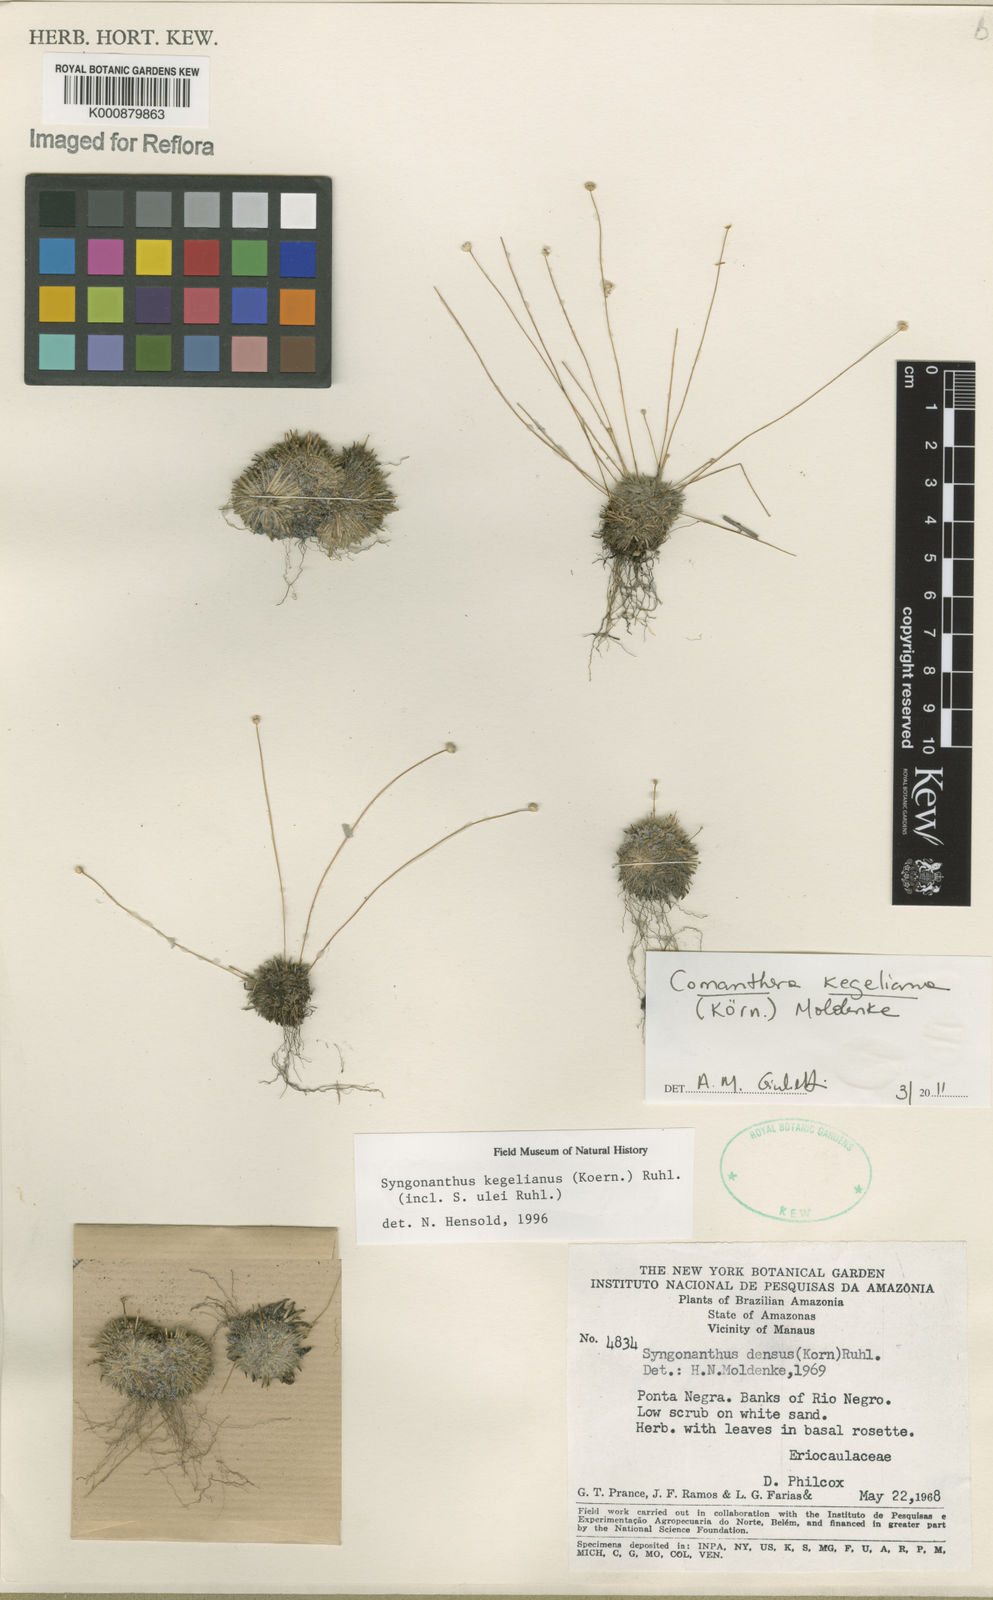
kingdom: Plantae
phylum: Tracheophyta
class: Liliopsida
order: Poales
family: Eriocaulaceae
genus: Comanthera
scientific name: Comanthera
